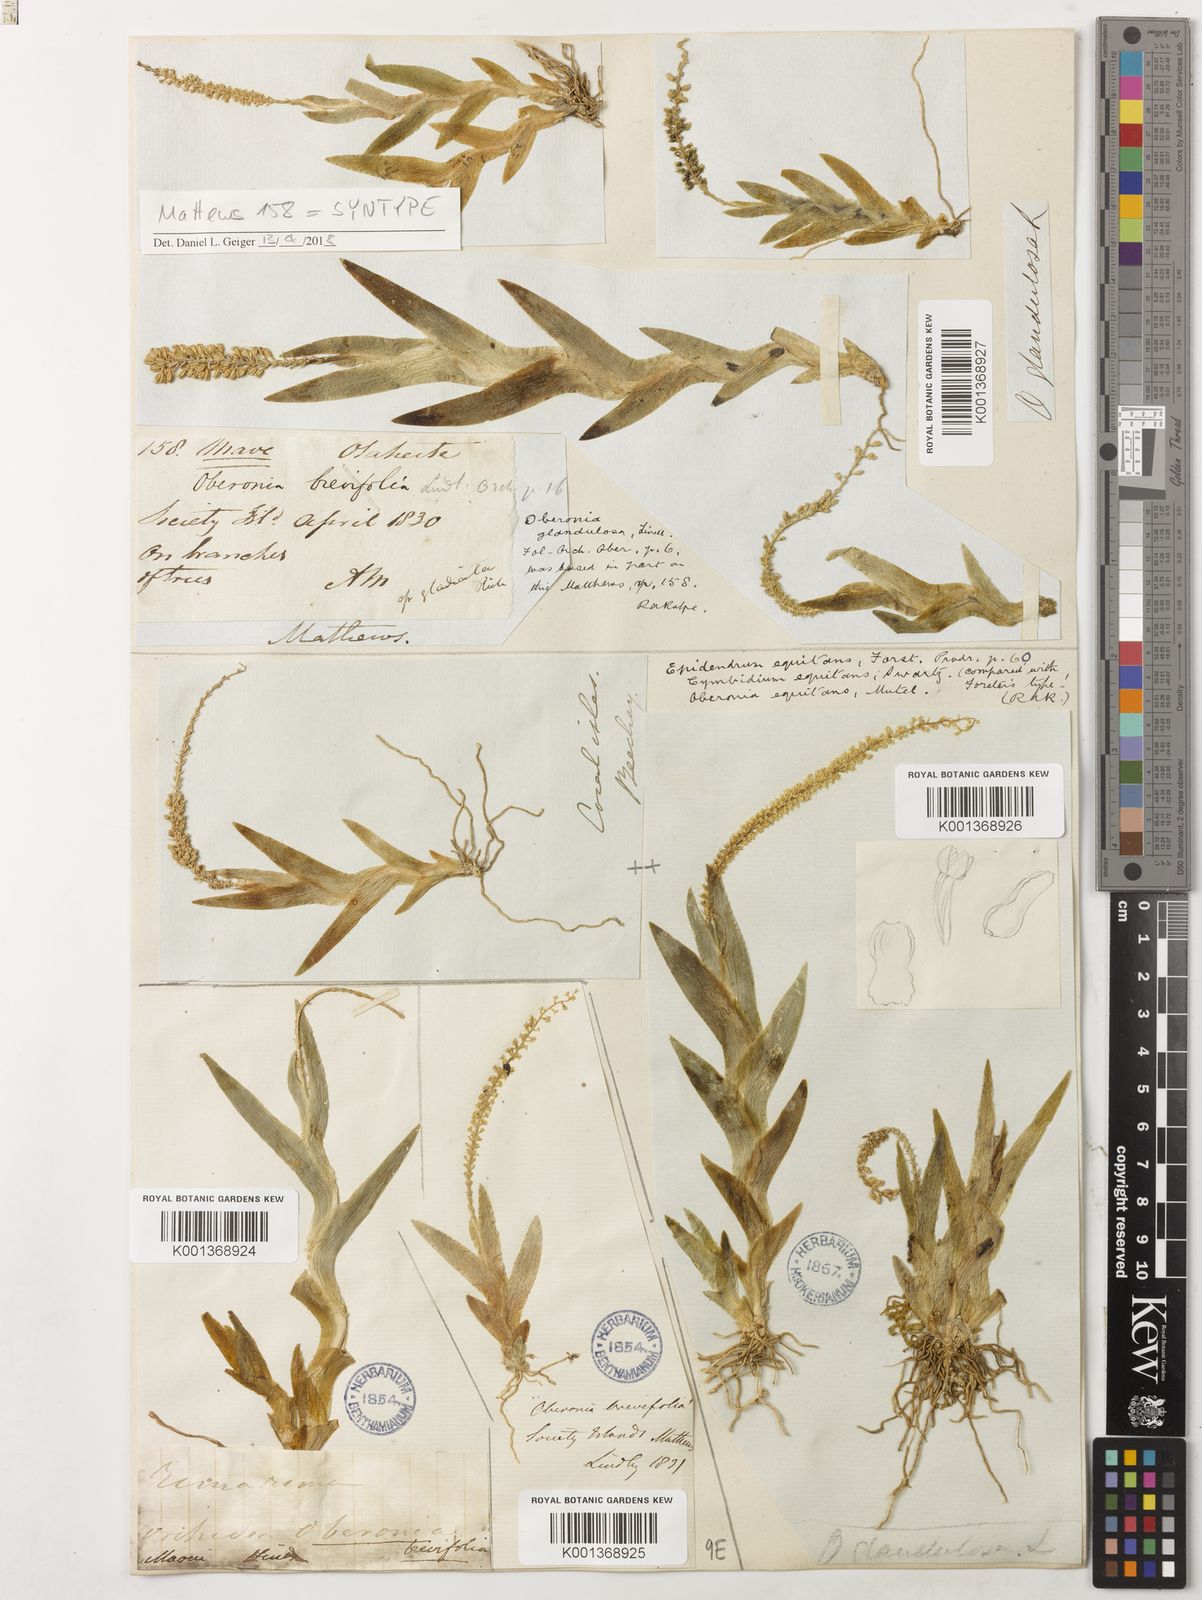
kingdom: Plantae
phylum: Tracheophyta
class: Liliopsida
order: Asparagales
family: Orchidaceae
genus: Oberonia
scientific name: Oberonia equitans
